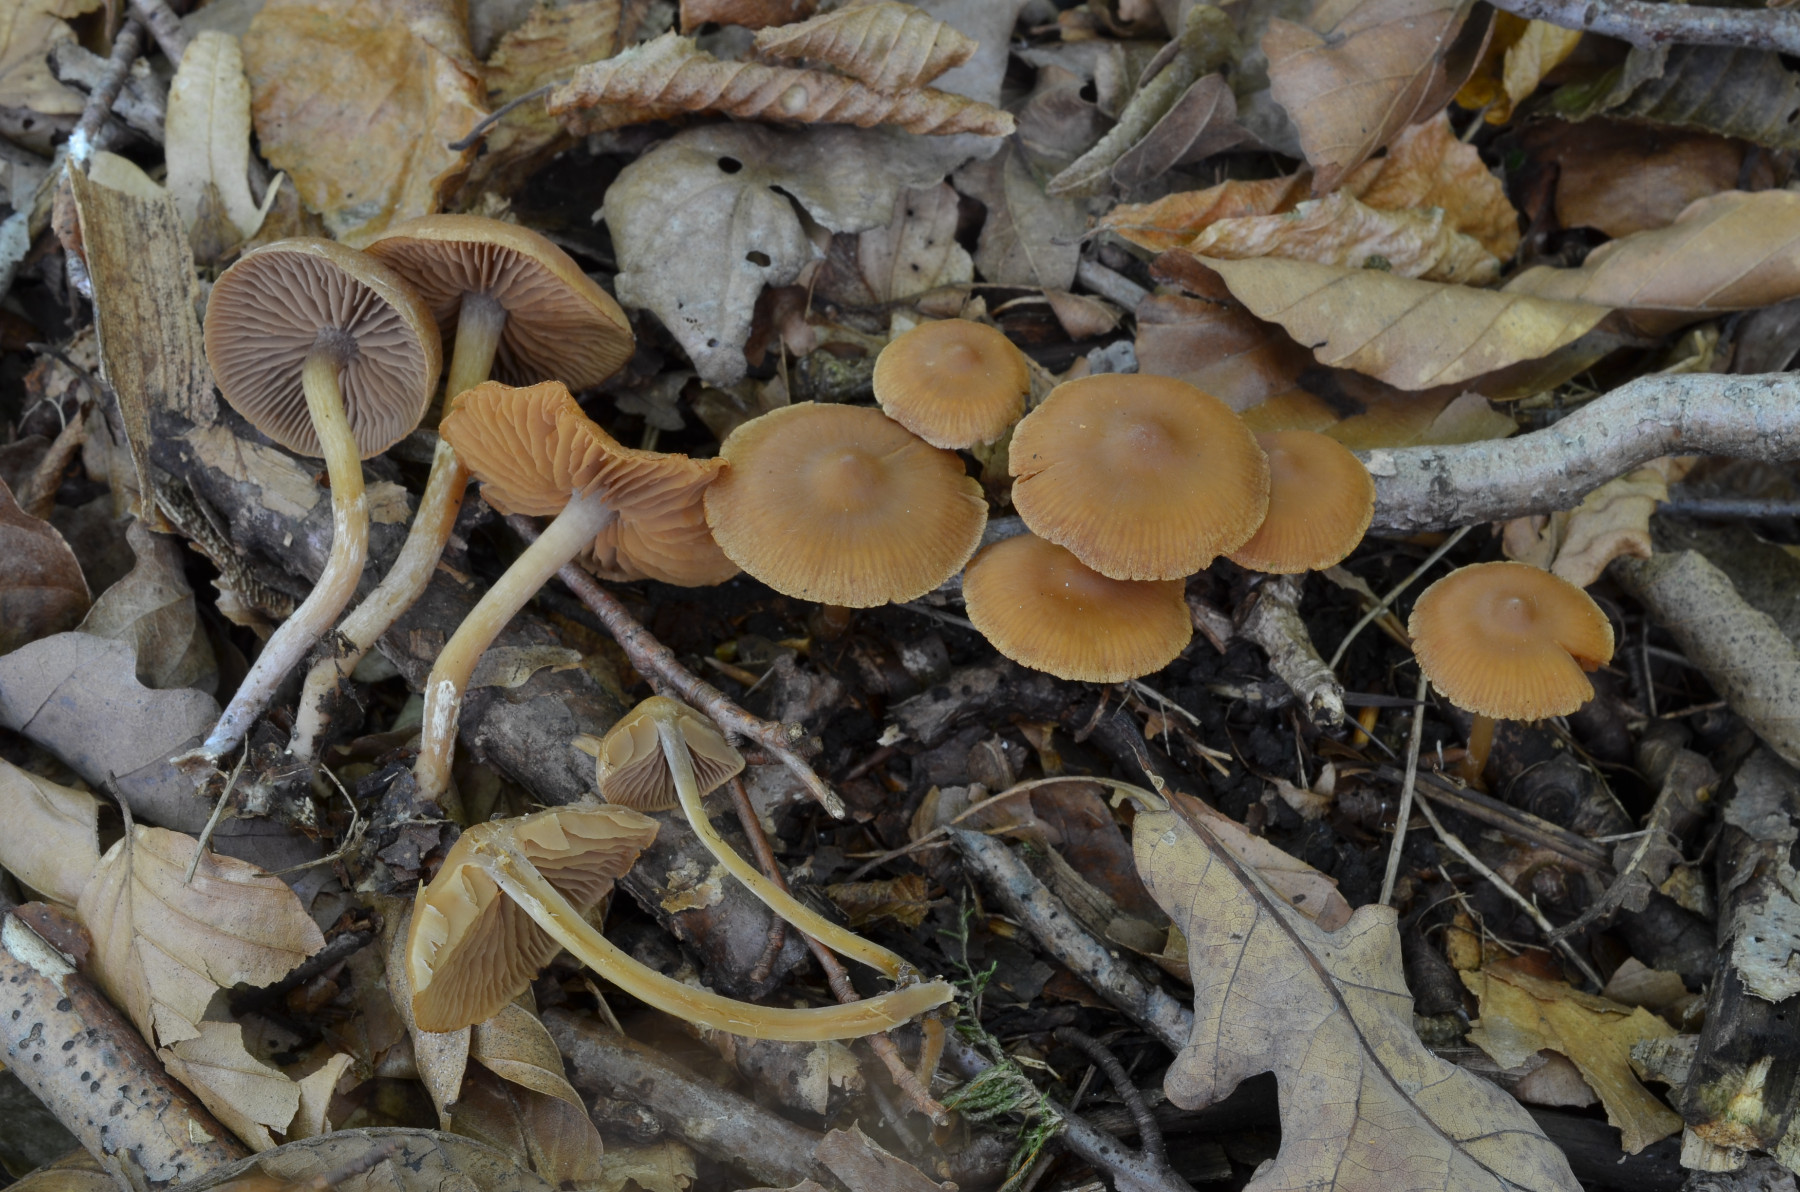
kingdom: Fungi
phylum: Basidiomycota
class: Agaricomycetes
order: Agaricales
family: Cortinariaceae
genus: Cortinarius
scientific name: Cortinarius neofallax
